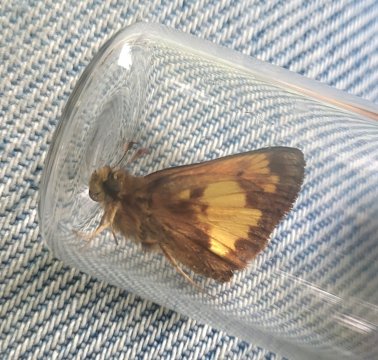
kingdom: Animalia
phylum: Arthropoda
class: Insecta
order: Lepidoptera
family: Hesperiidae
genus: Lon
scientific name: Lon hobomok
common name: Hobomok Skipper
